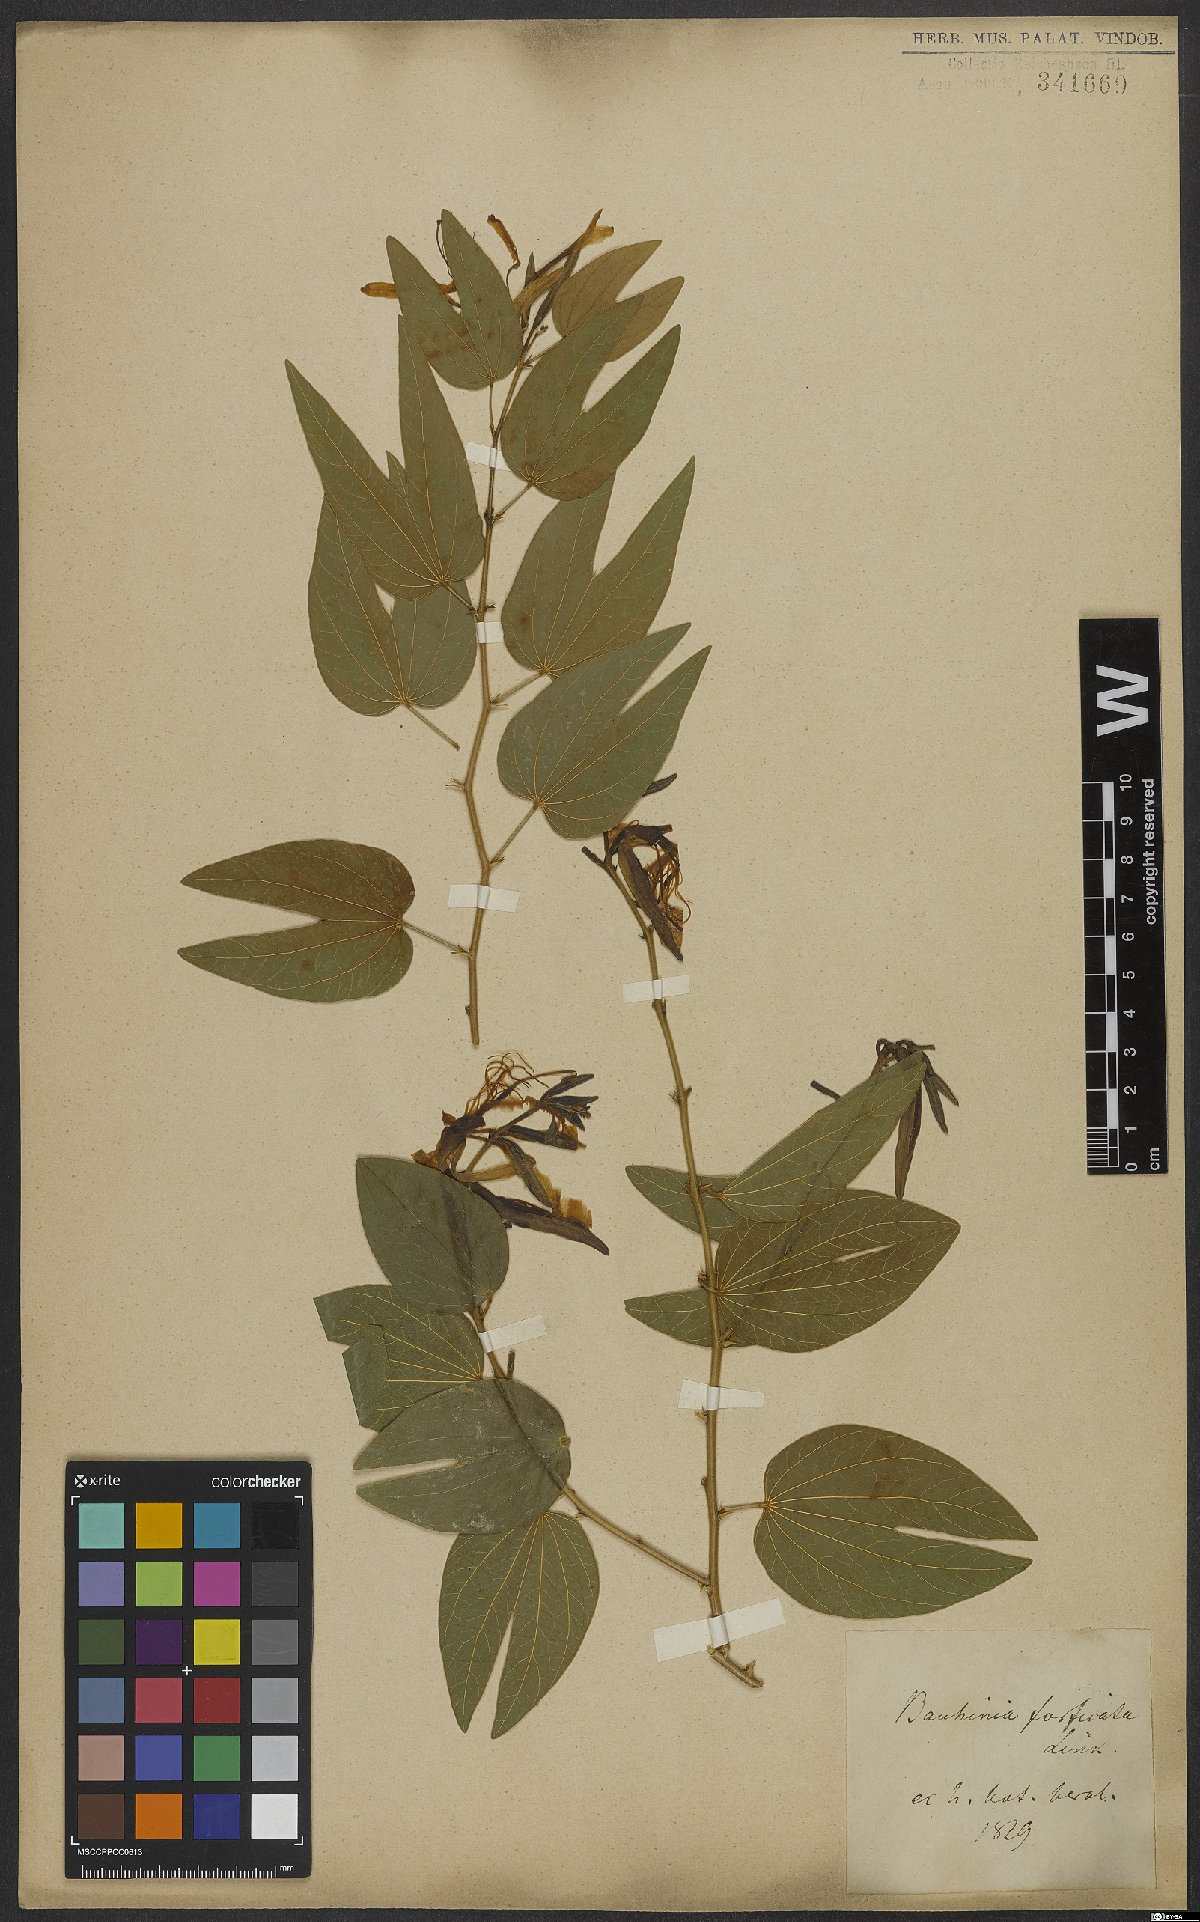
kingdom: Plantae
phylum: Tracheophyta
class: Magnoliopsida
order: Fabales
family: Fabaceae
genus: Bauhinia
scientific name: Bauhinia forficata
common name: Orchid tree
